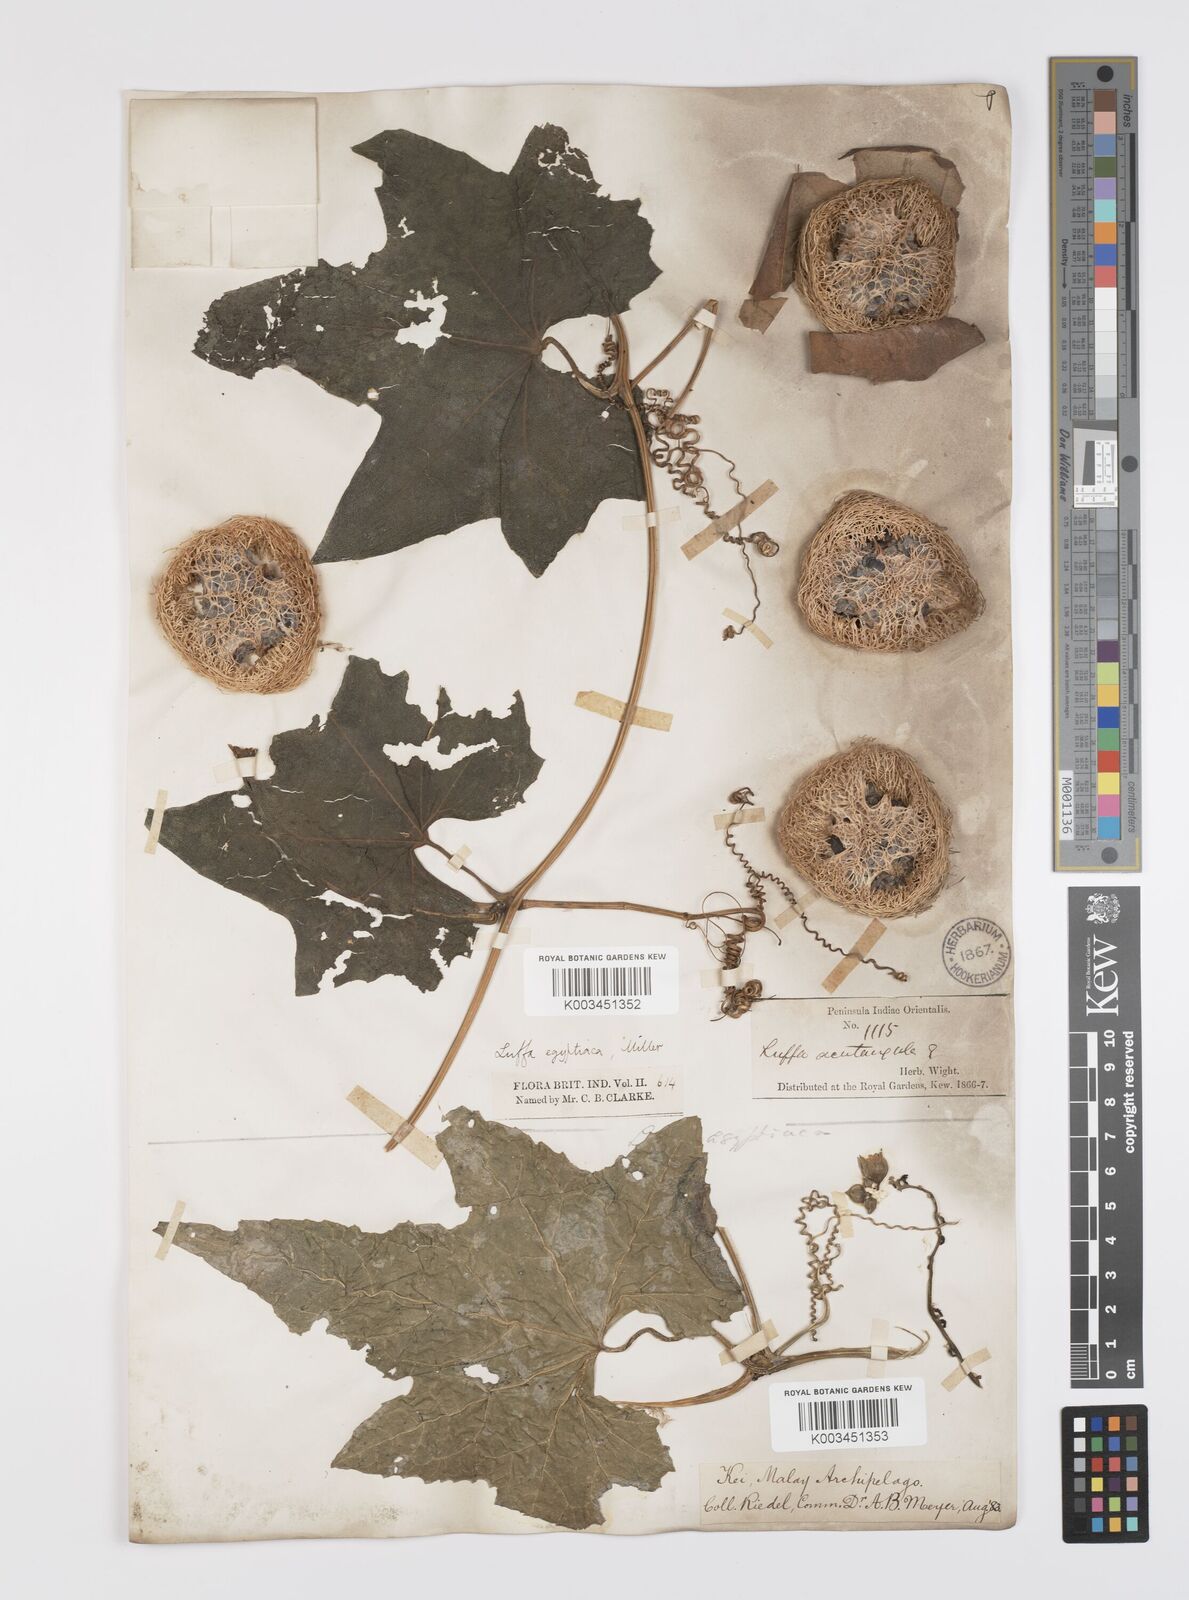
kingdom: Plantae
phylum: Tracheophyta
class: Magnoliopsida
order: Cucurbitales
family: Cucurbitaceae
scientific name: Cucurbitaceae
